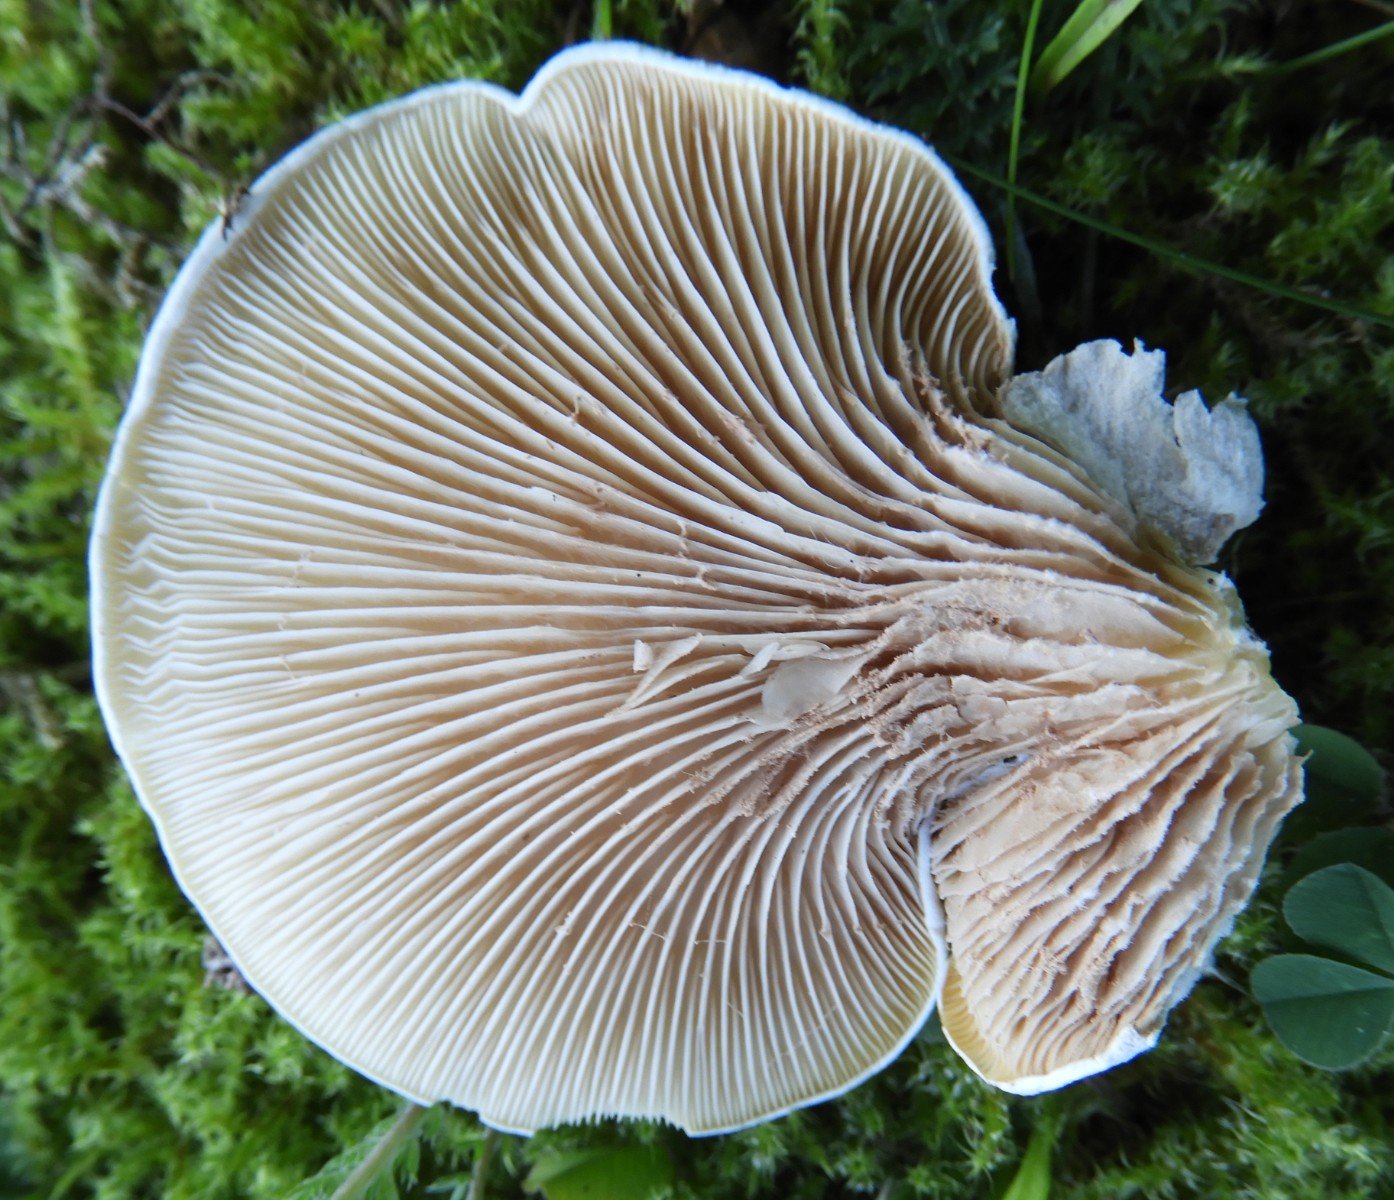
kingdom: Fungi
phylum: Basidiomycota
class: Agaricomycetes
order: Agaricales
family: Entolomataceae
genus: Clitopilus
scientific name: Clitopilus prunulus
